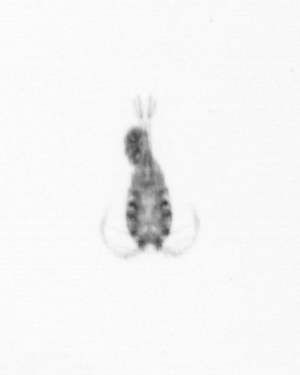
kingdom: Animalia
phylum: Arthropoda
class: Copepoda
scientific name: Copepoda
